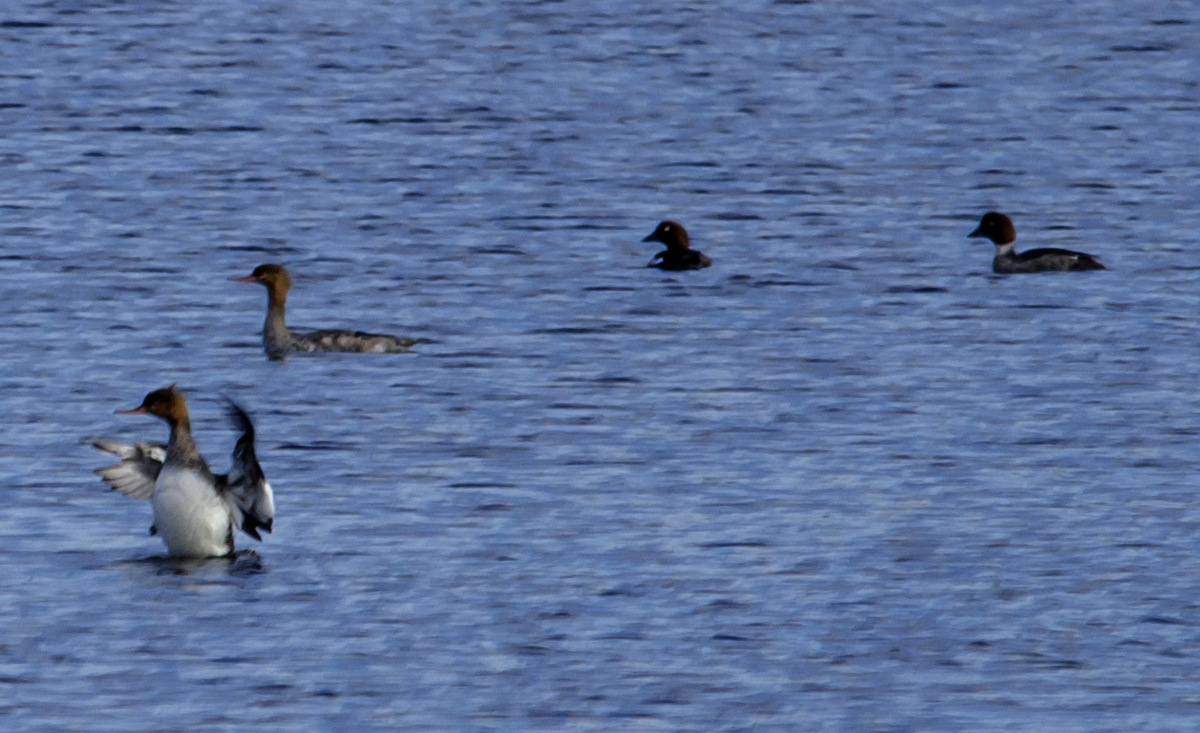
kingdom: Animalia
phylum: Chordata
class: Aves
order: Anseriformes
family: Anatidae
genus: Bucephala
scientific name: Bucephala clangula
